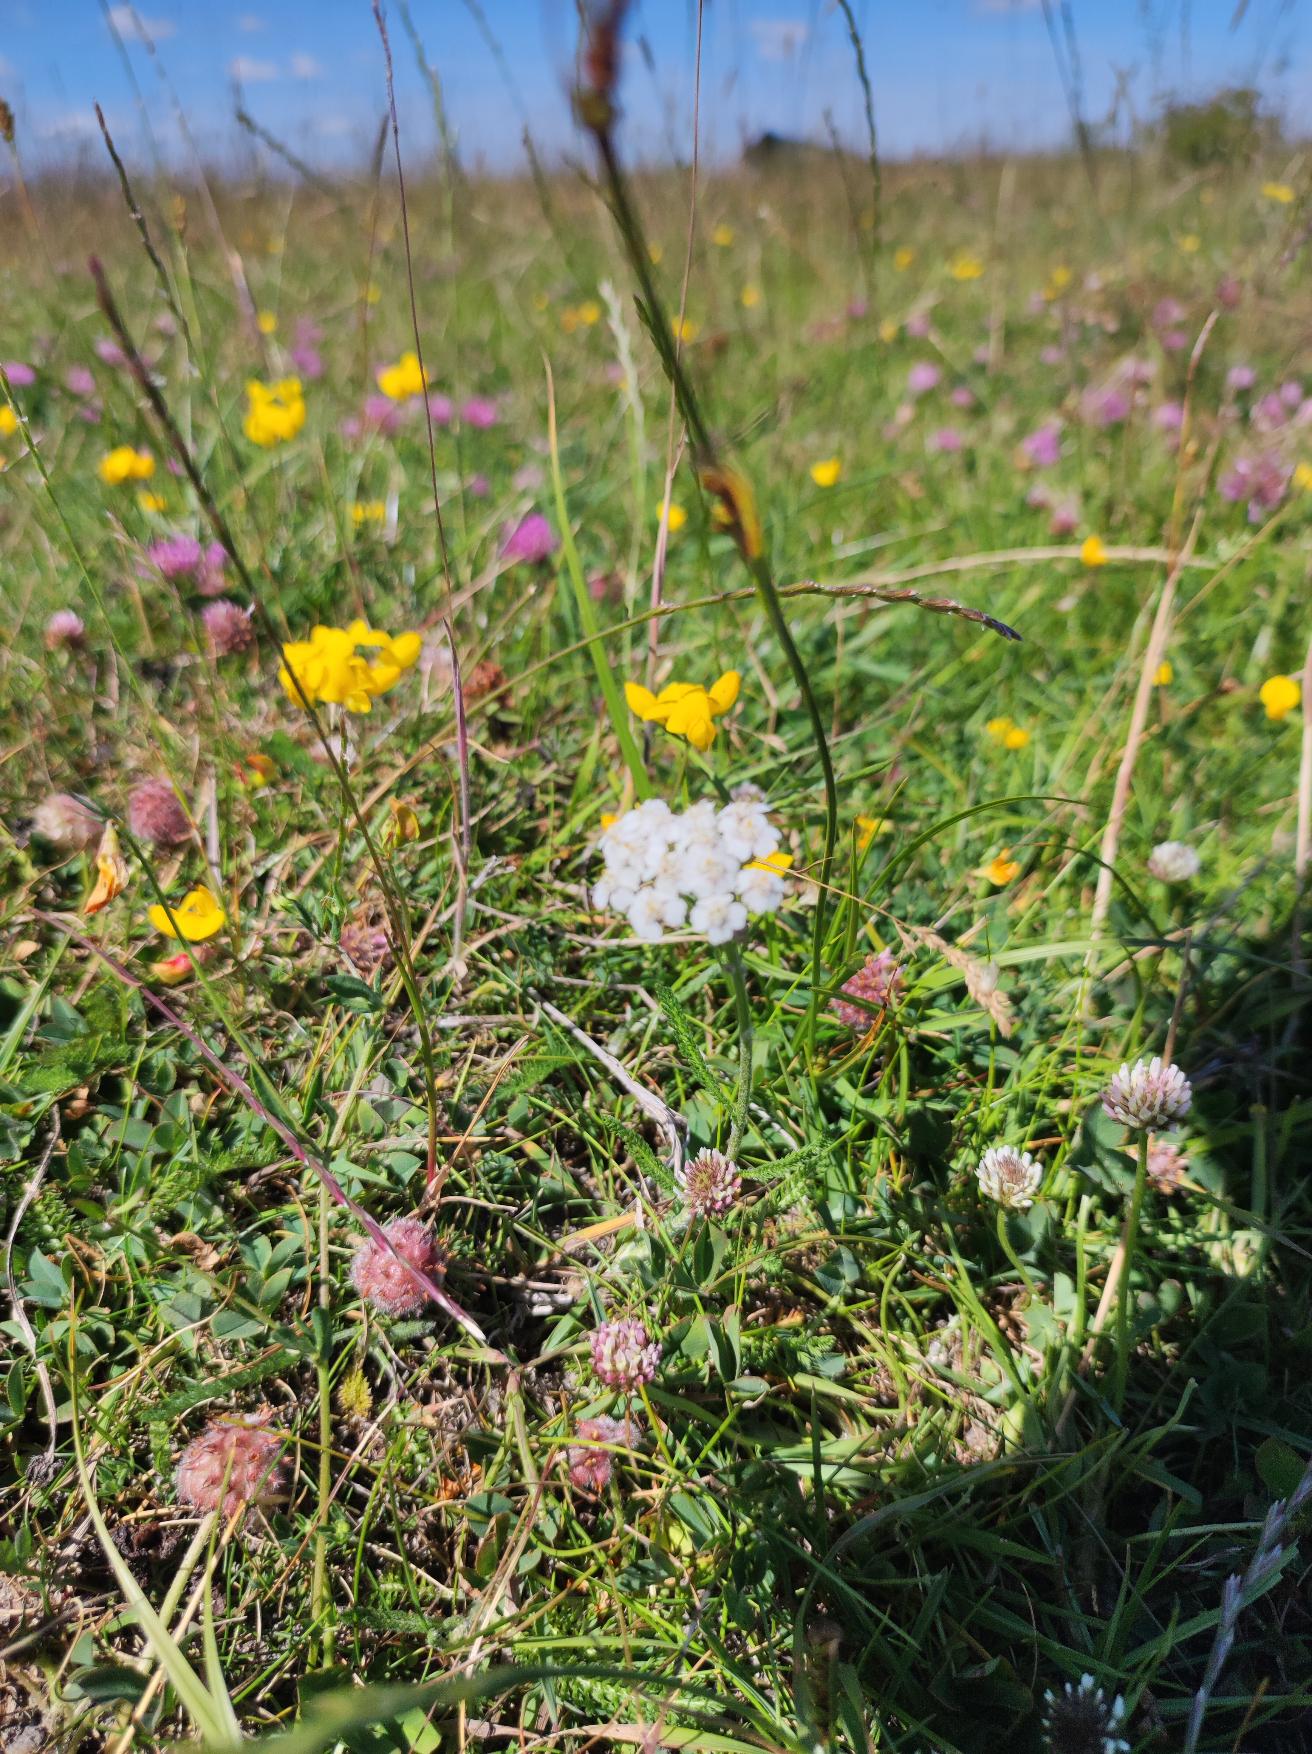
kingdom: Plantae
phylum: Tracheophyta
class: Magnoliopsida
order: Asterales
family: Asteraceae
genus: Achillea
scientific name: Achillea millefolium
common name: Almindelig røllike
